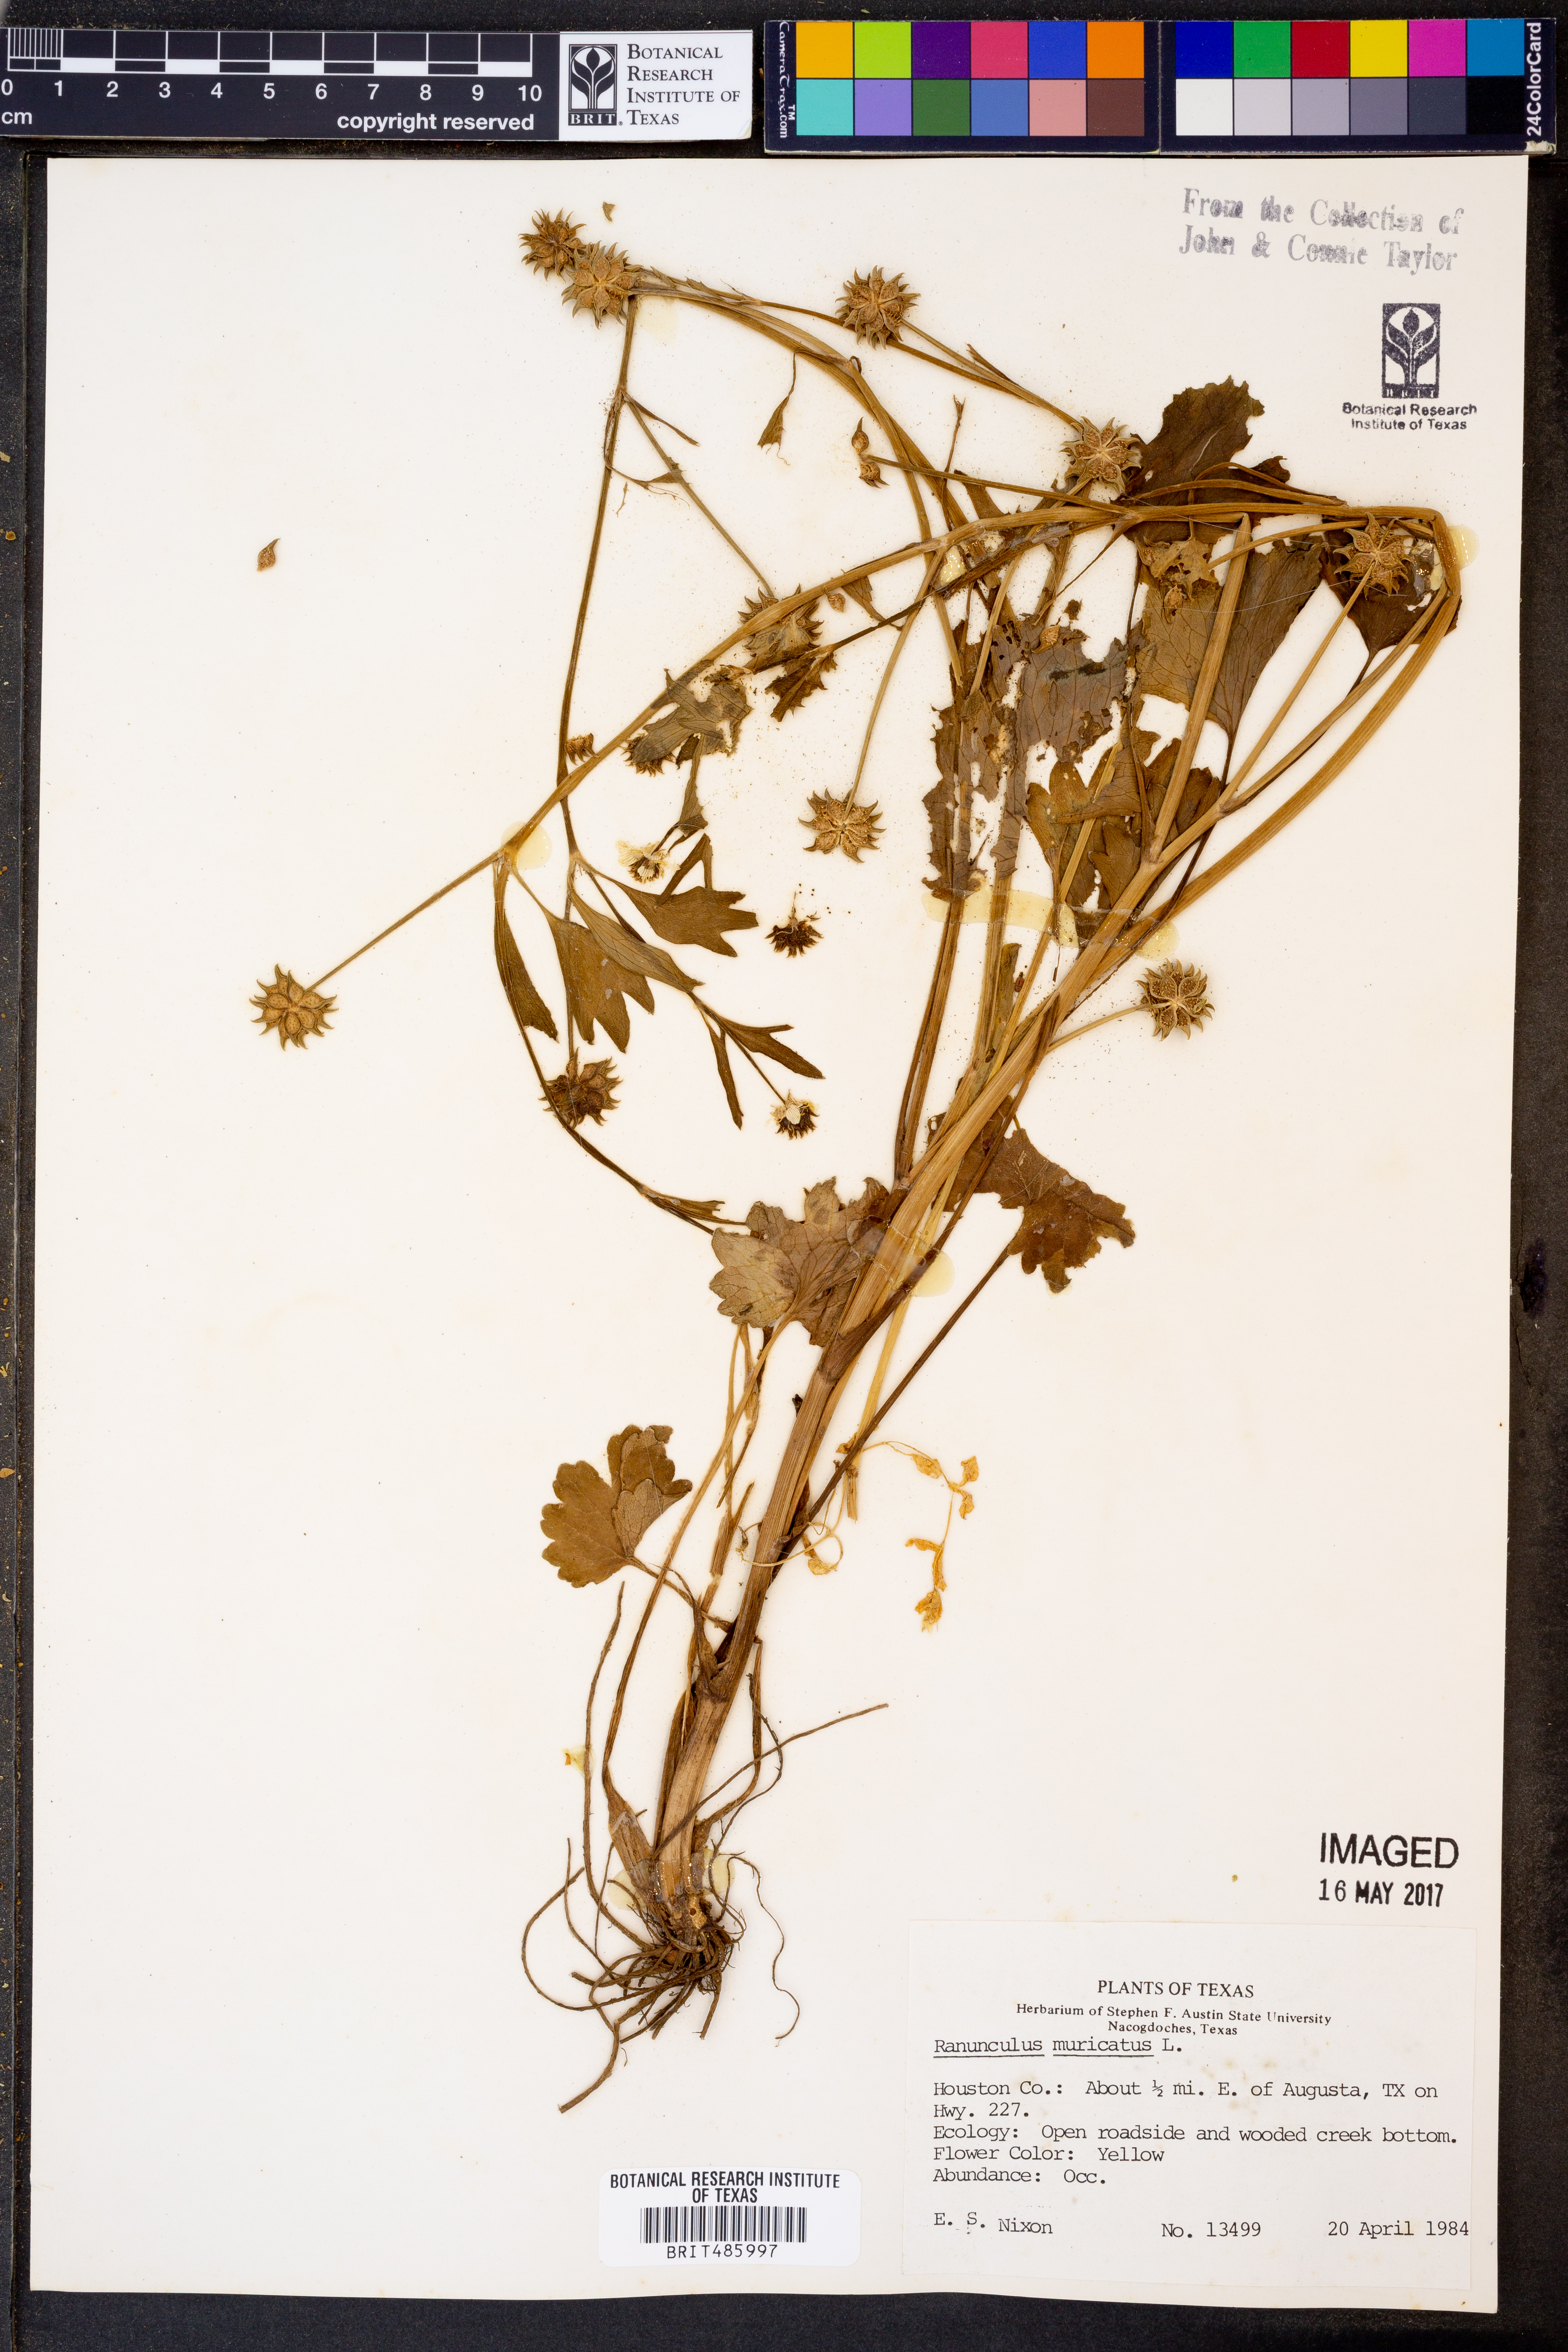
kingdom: Plantae
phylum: Tracheophyta
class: Magnoliopsida
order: Ranunculales
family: Ranunculaceae
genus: Ranunculus
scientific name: Ranunculus muricatus
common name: Rough-fruited buttercup
